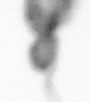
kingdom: Animalia
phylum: Arthropoda
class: Copepoda
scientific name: Copepoda
